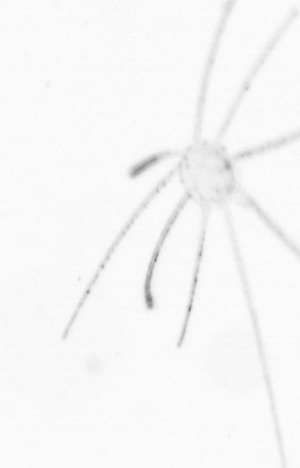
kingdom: Chromista
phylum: Ochrophyta
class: Bacillariophyceae
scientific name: Bacillariophyceae
